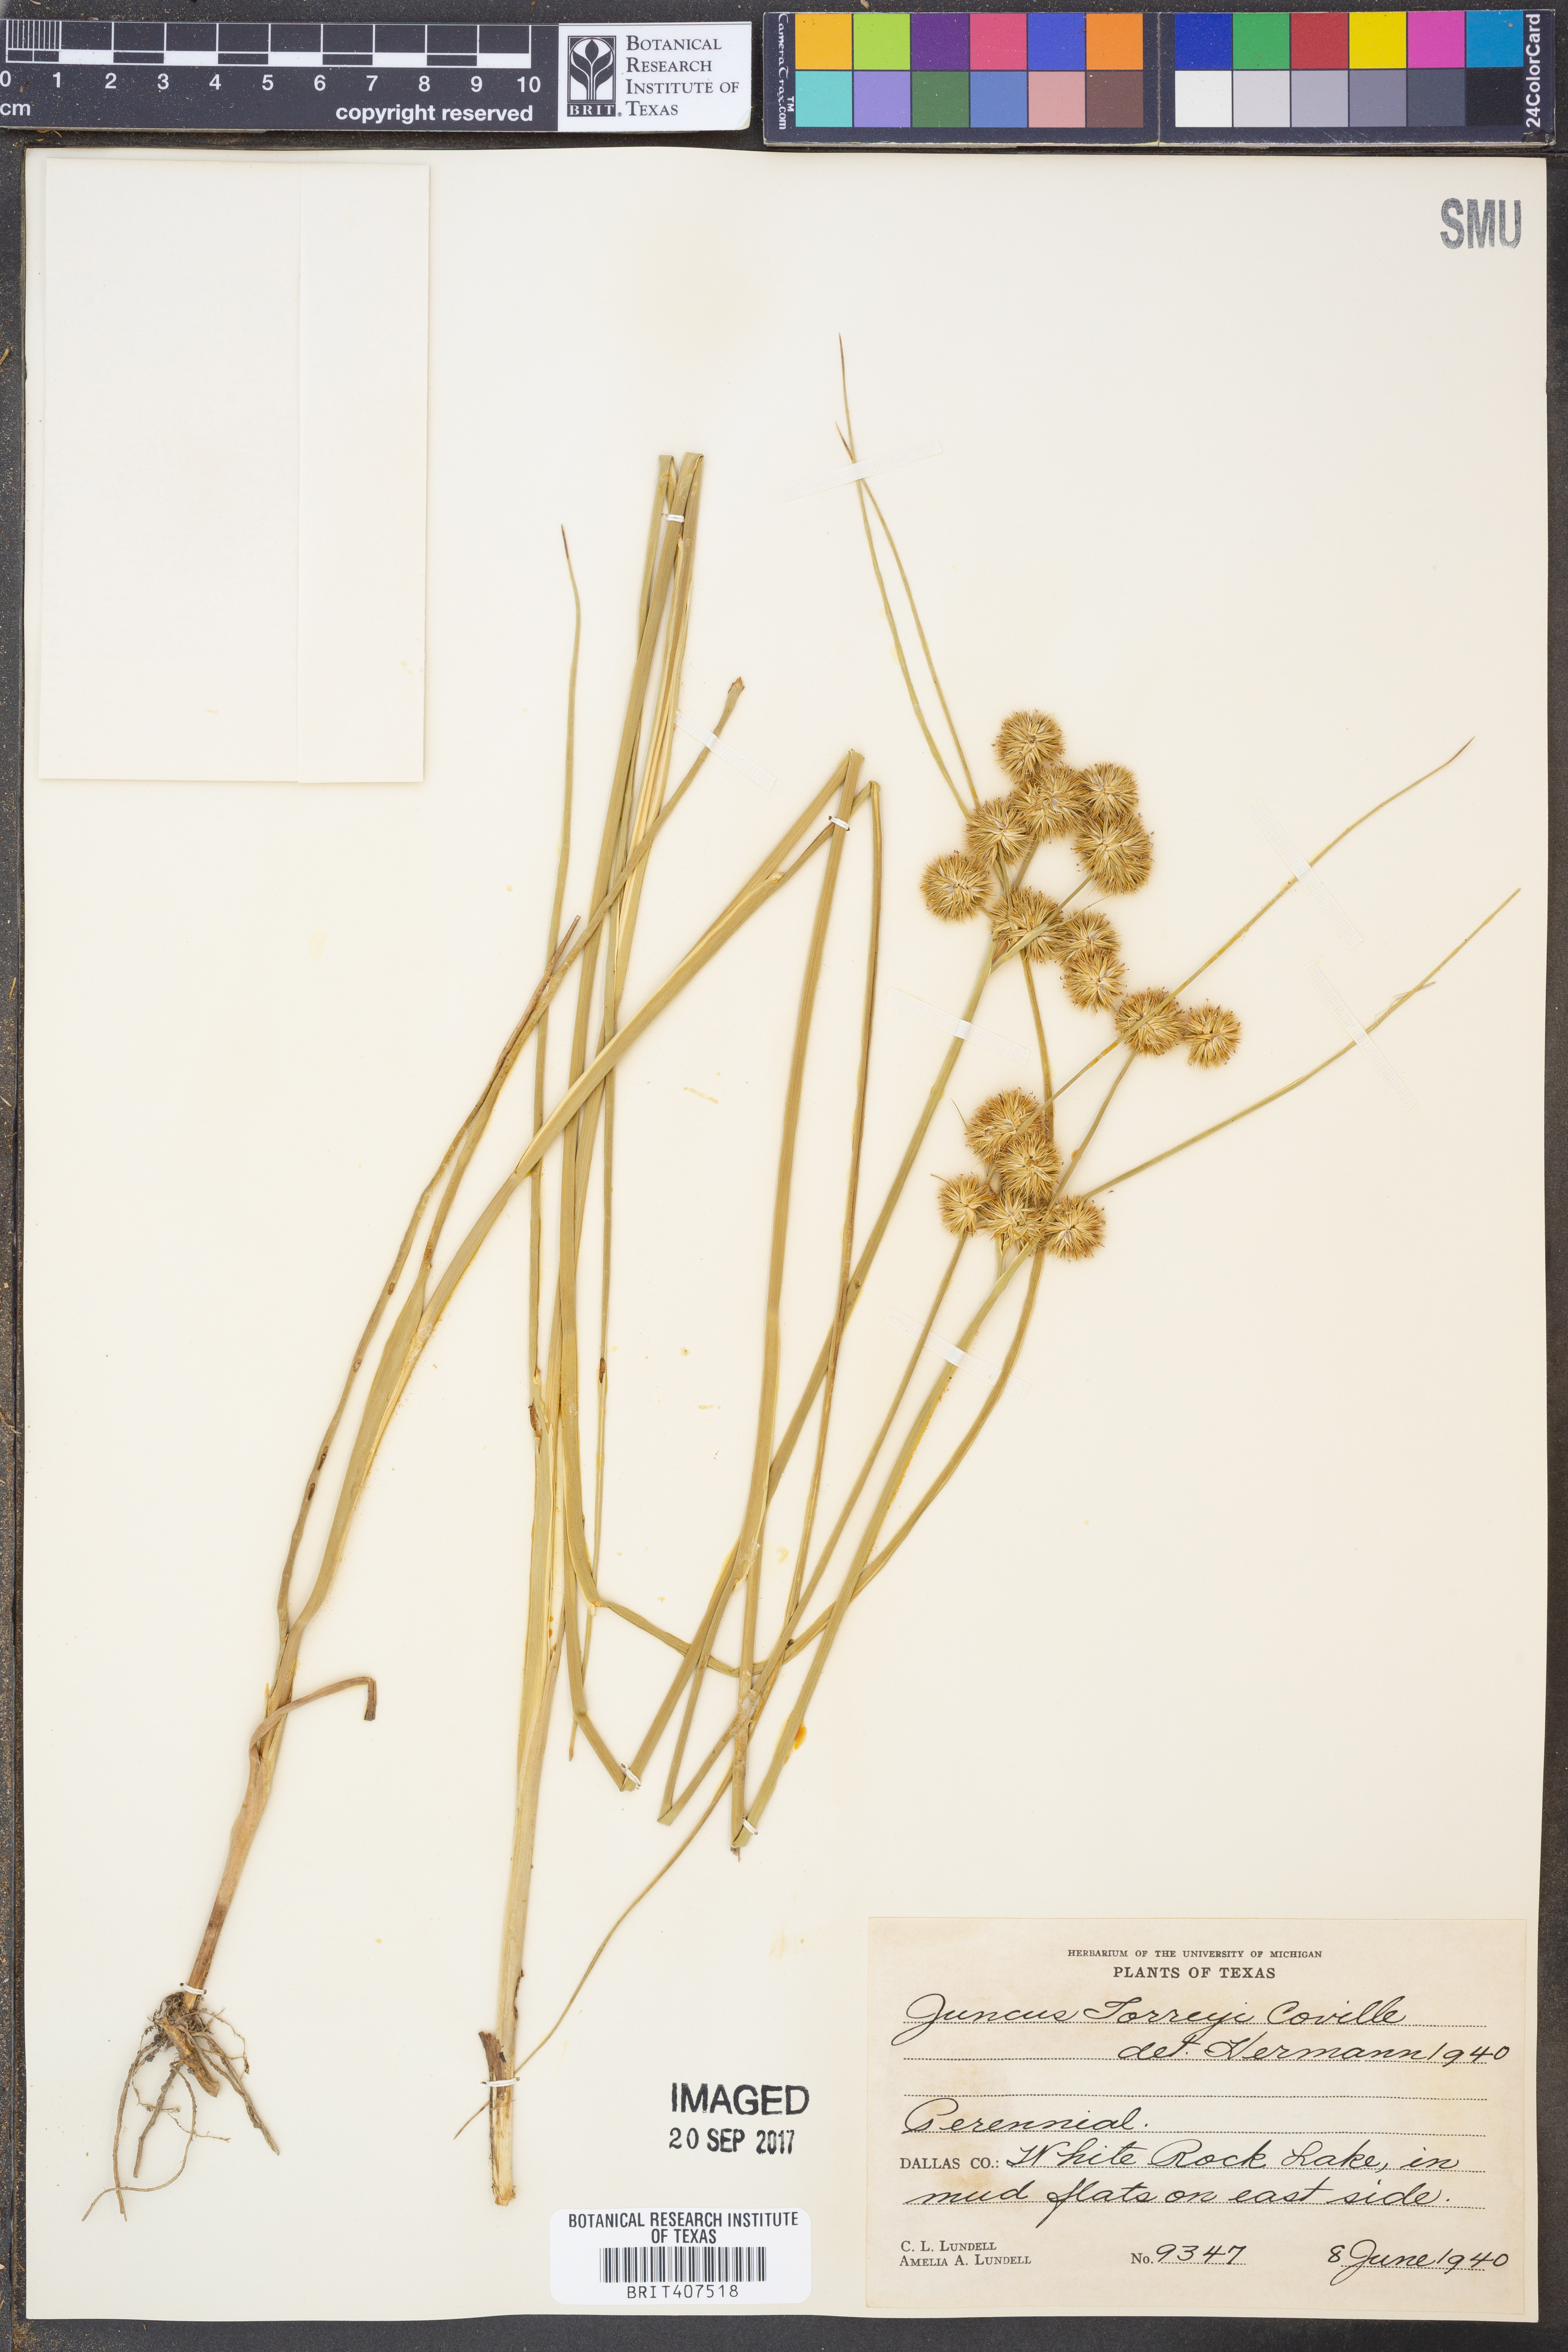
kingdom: Plantae
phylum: Tracheophyta
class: Liliopsida
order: Poales
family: Juncaceae
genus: Juncus
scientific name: Juncus torreyi
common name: Torrey's rush
